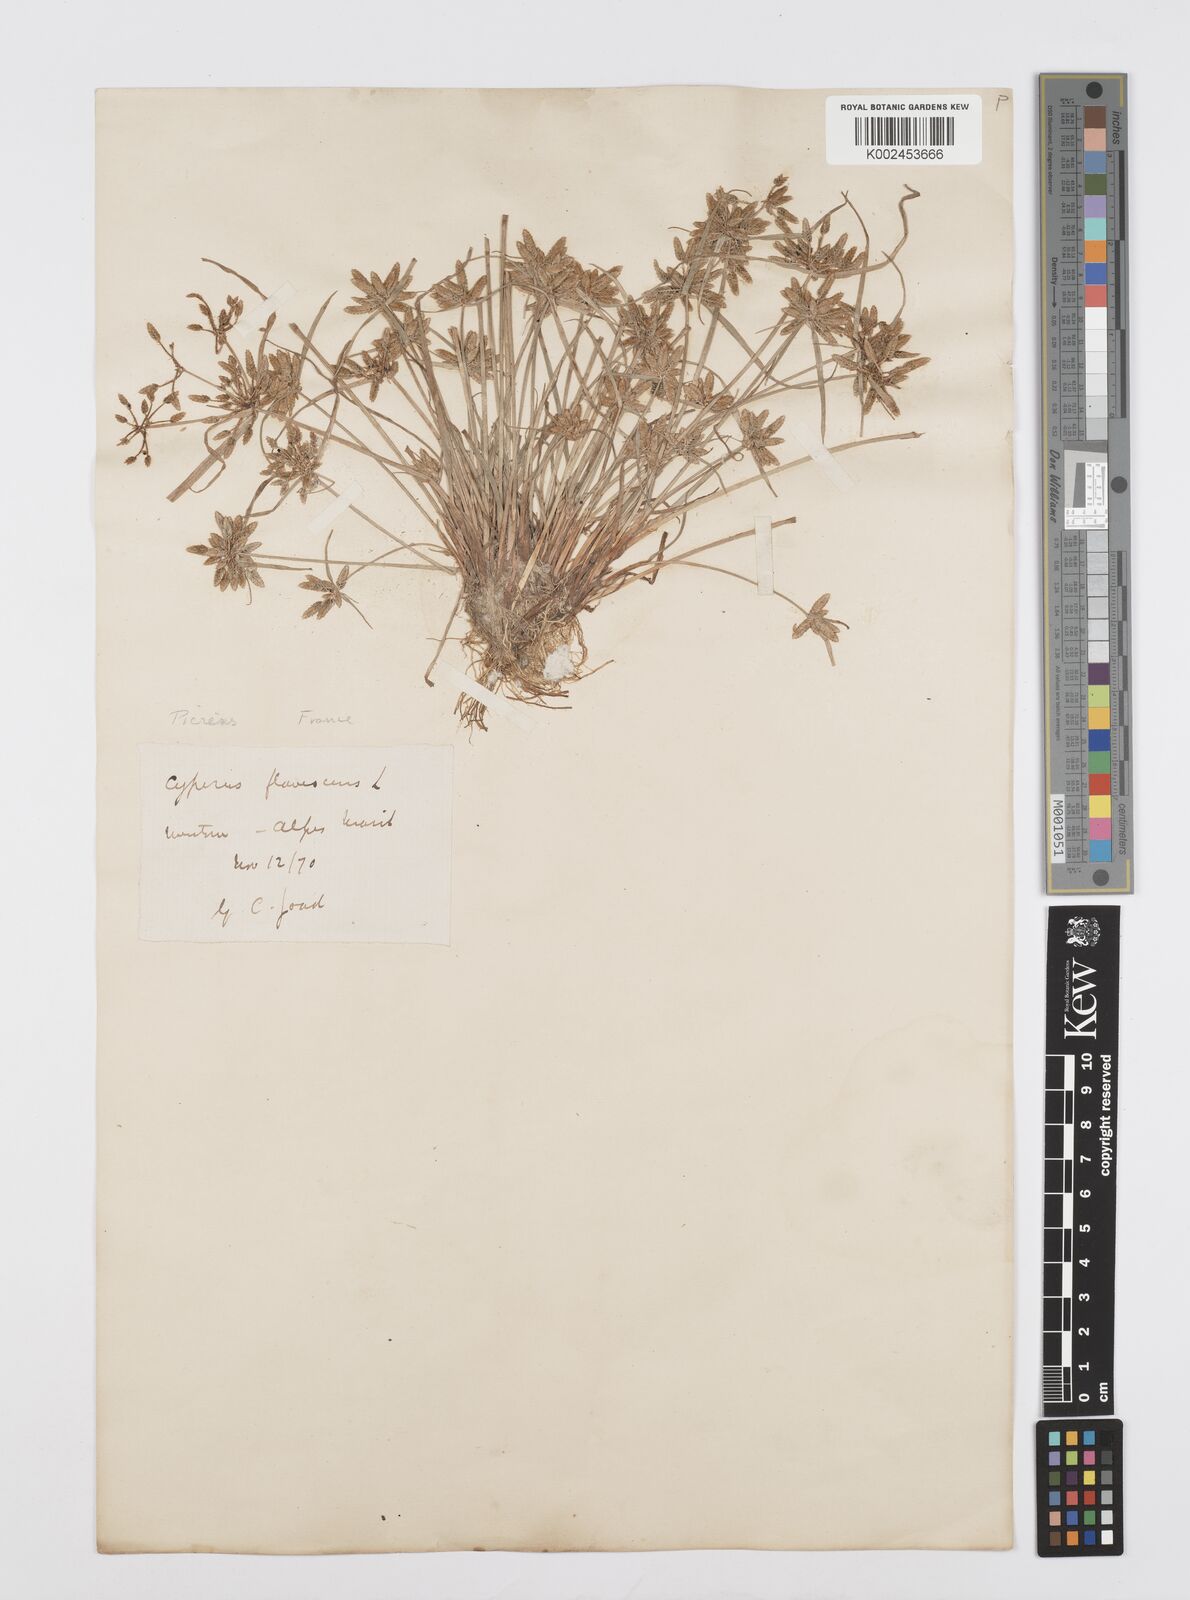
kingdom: Plantae
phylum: Tracheophyta
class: Liliopsida
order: Poales
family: Cyperaceae
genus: Cyperus
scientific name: Cyperus flavescens
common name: Yellow galingale
